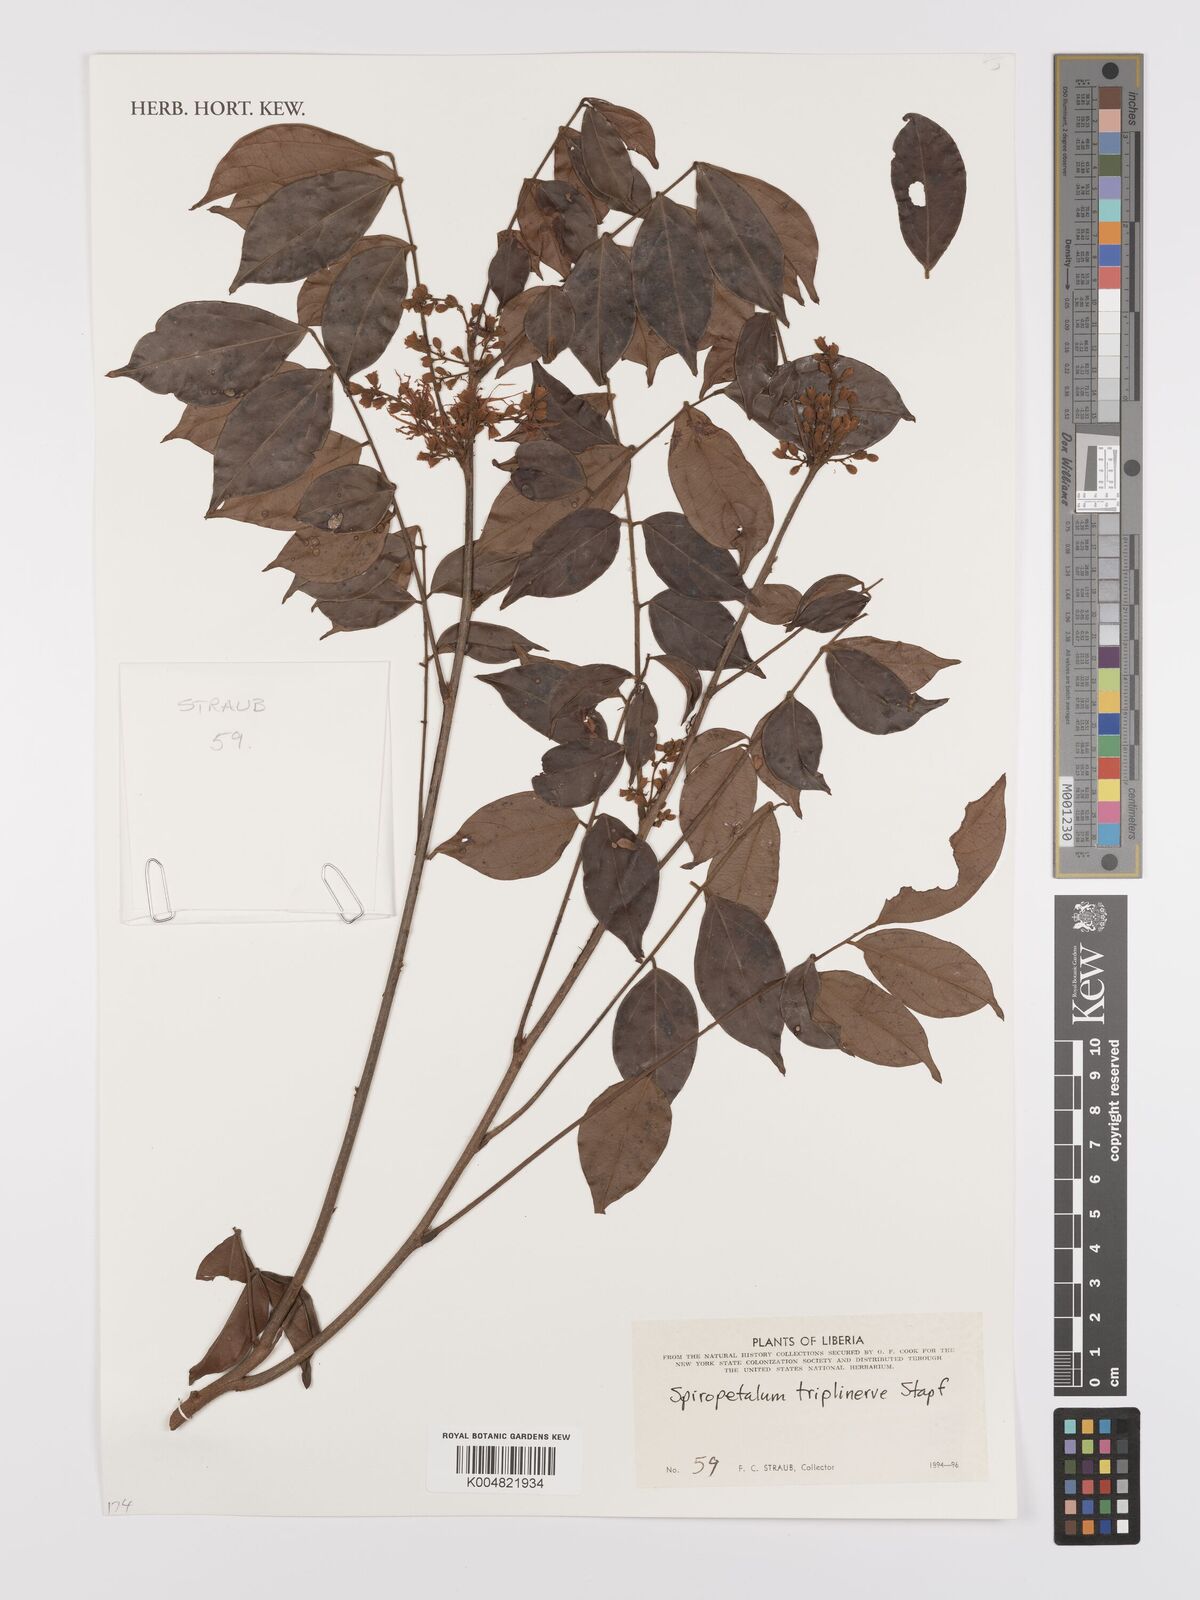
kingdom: Plantae
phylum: Tracheophyta
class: Magnoliopsida
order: Oxalidales
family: Connaraceae
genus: Rourea
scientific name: Rourea solanderi
